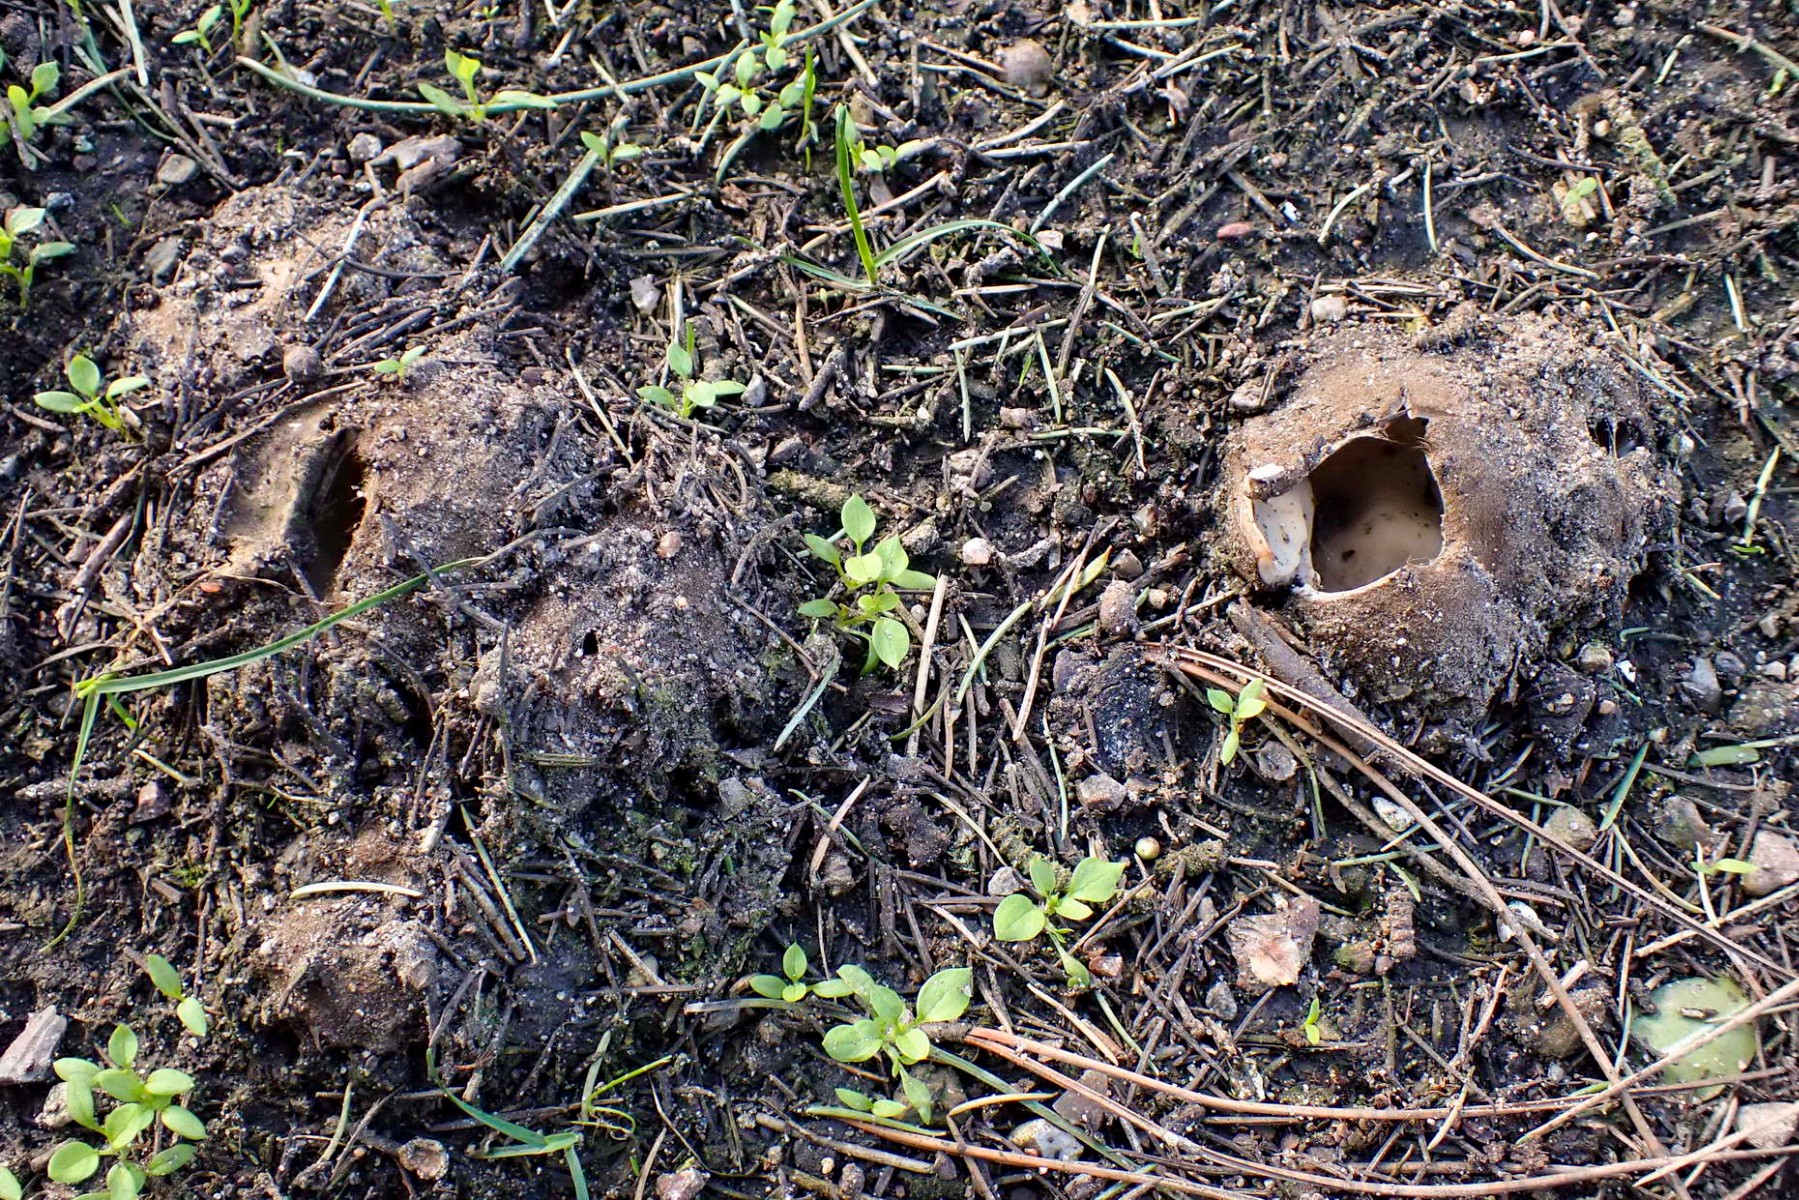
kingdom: Fungi
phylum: Ascomycota
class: Pezizomycetes
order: Pezizales
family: Pyronemataceae
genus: Geopora
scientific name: Geopora sumneriana
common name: vår-jordbæger
